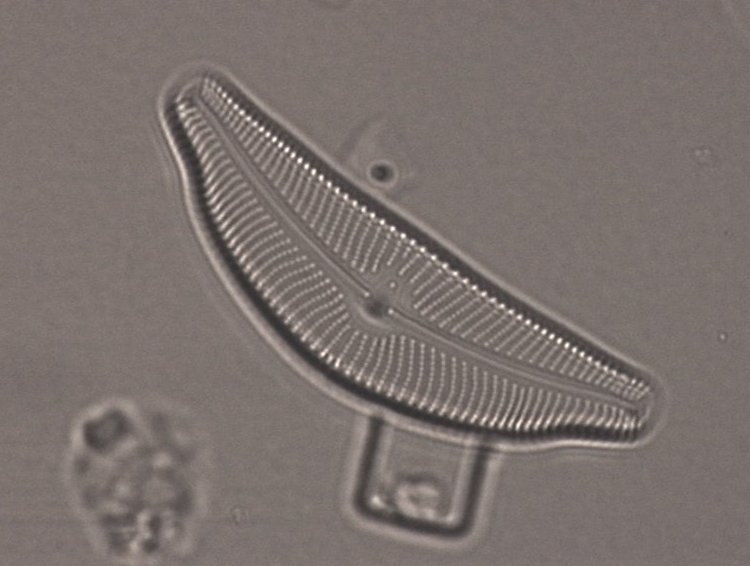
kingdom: Chromista
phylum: Ochrophyta
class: Bacillariophyceae
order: Cymbellales
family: Cymbellaceae
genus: Cymbella
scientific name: Cymbella tumida
